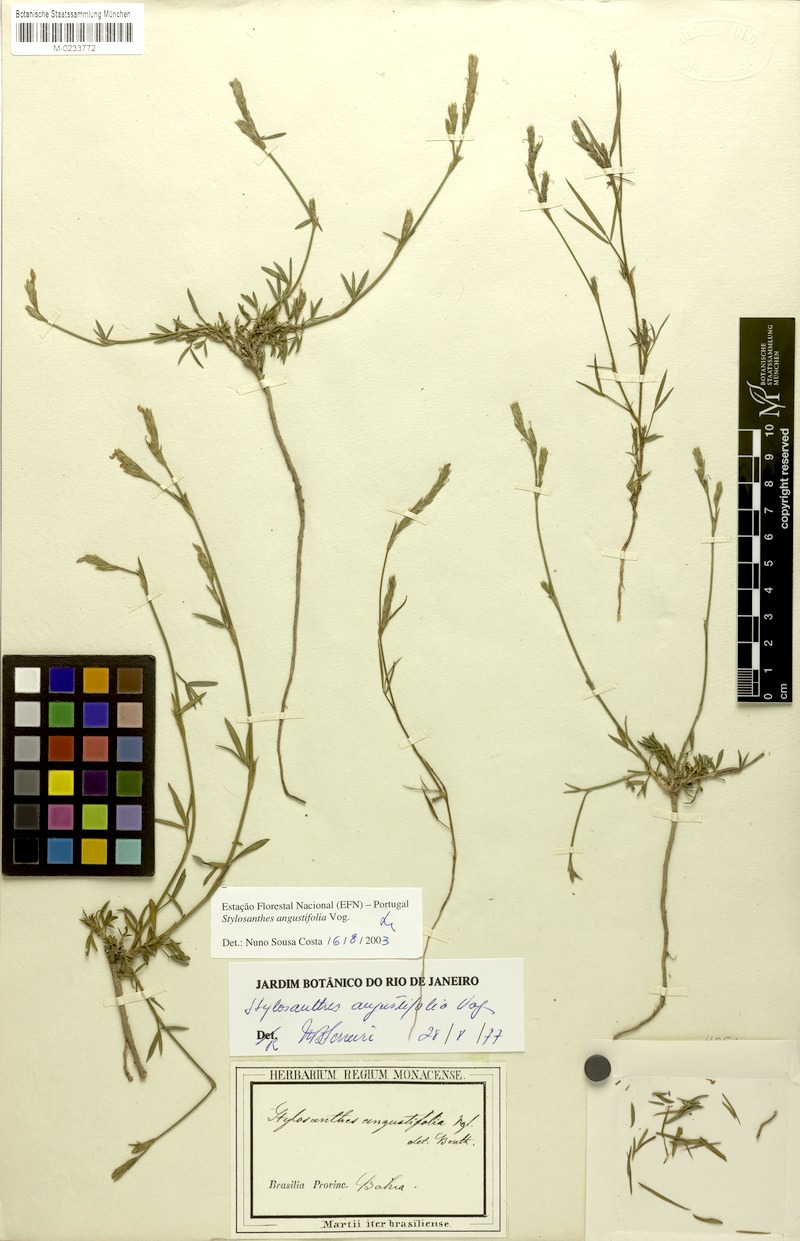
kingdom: Plantae
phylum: Tracheophyta
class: Magnoliopsida
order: Fabales
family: Fabaceae
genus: Stylosanthes
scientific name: Stylosanthes angustifolia
